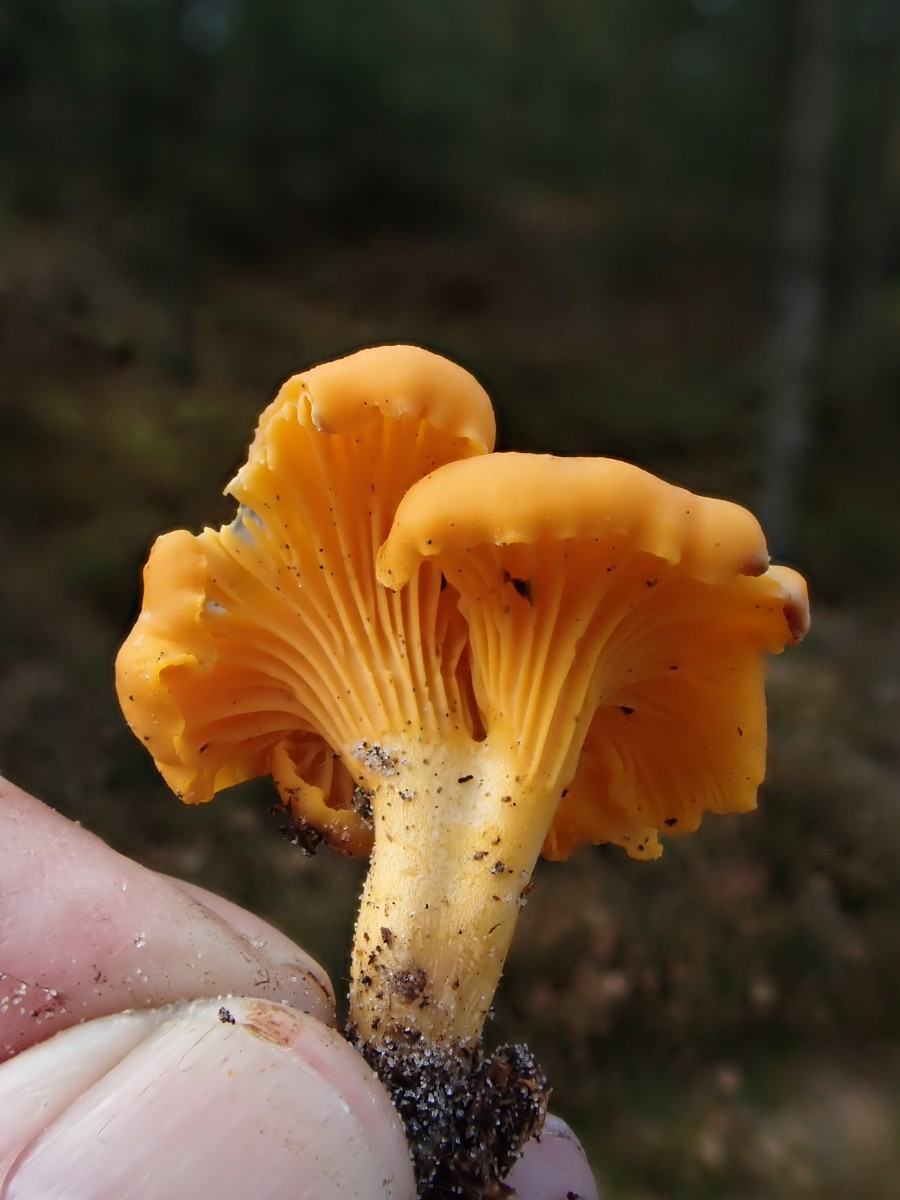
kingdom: Fungi
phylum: Basidiomycota
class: Agaricomycetes
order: Cantharellales
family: Hydnaceae
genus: Cantharellus
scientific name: Cantharellus cibarius
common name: almindelig kantarel
